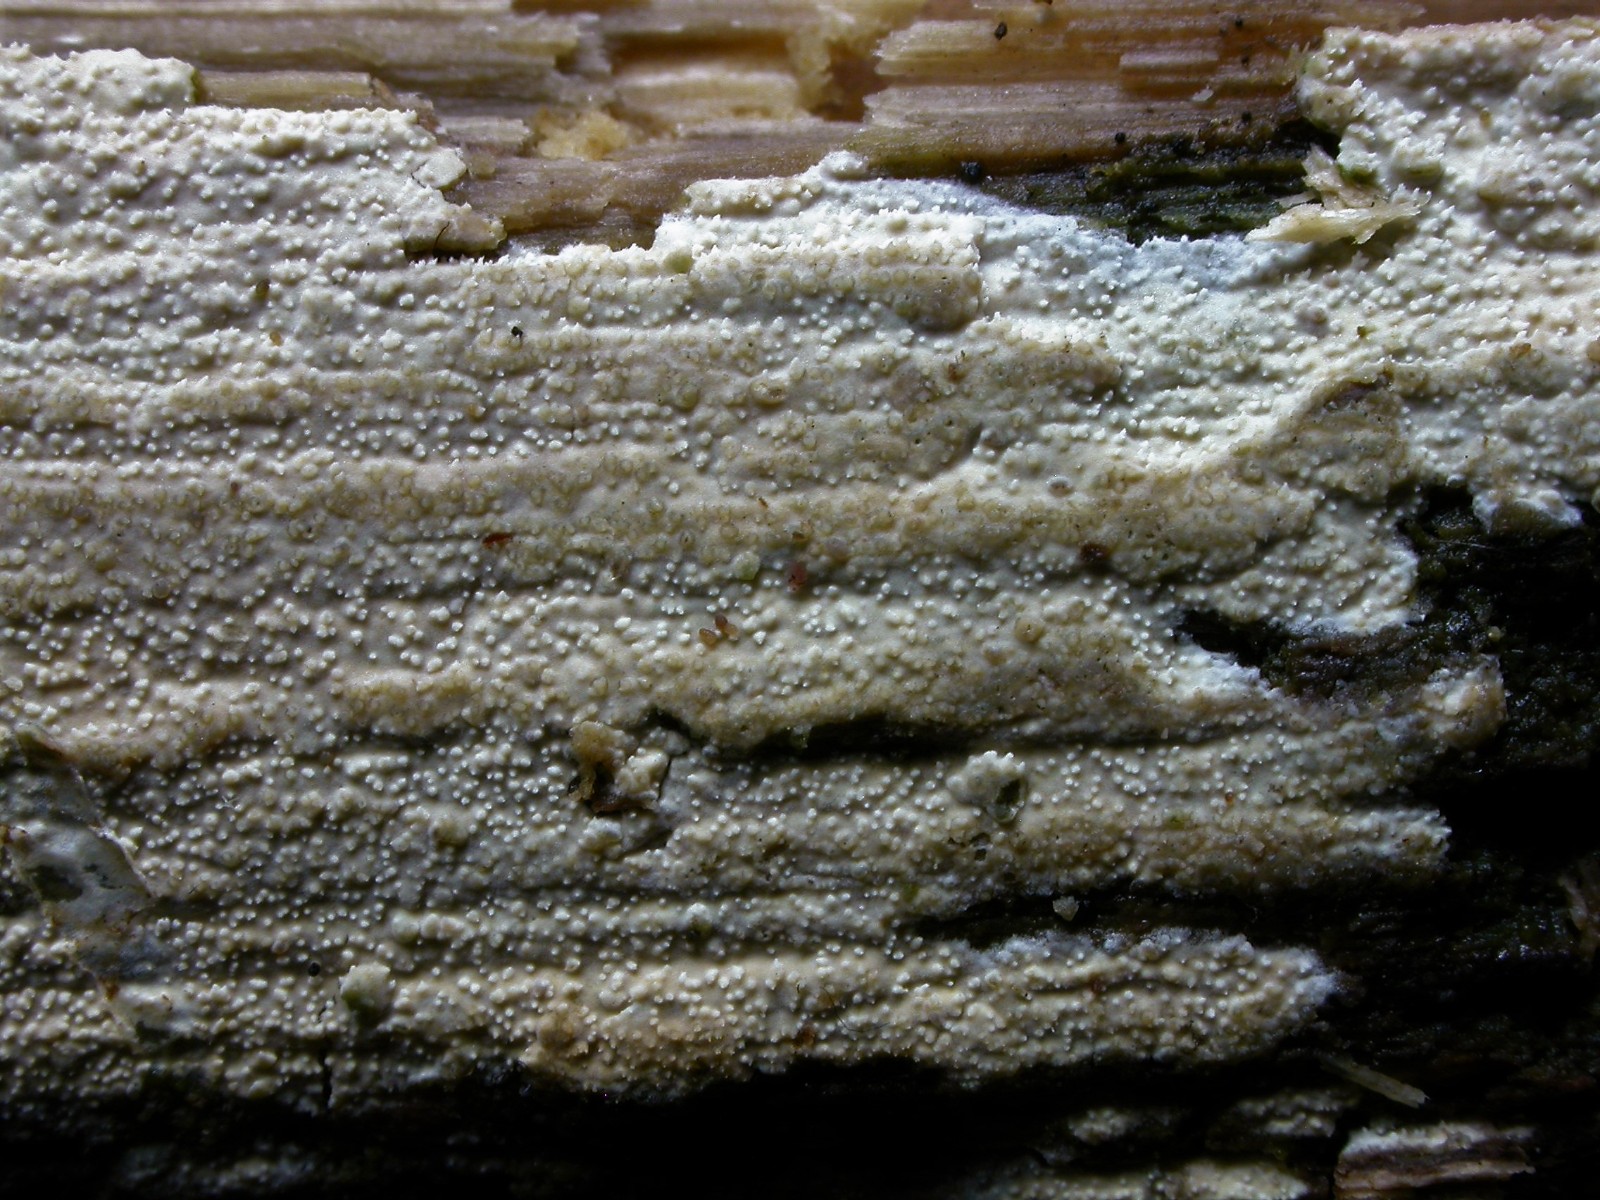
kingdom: Fungi
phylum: Basidiomycota
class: Agaricomycetes
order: Hymenochaetales
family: Schizoporaceae
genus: Xylodon
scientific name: Xylodon nesporii
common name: fintandet tandsvamp
